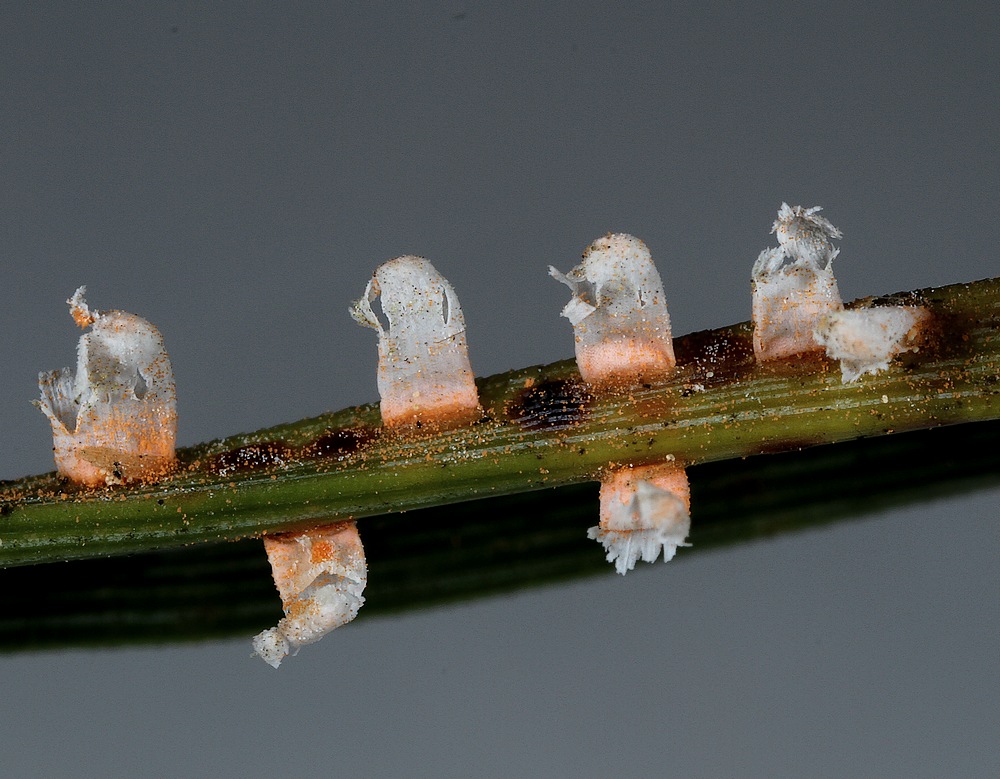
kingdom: Fungi
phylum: Basidiomycota
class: Pucciniomycetes
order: Pucciniales
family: Coleosporiaceae
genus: Coleosporium
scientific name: Coleosporium tussilaginis
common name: almindelig fyrrenålerust
